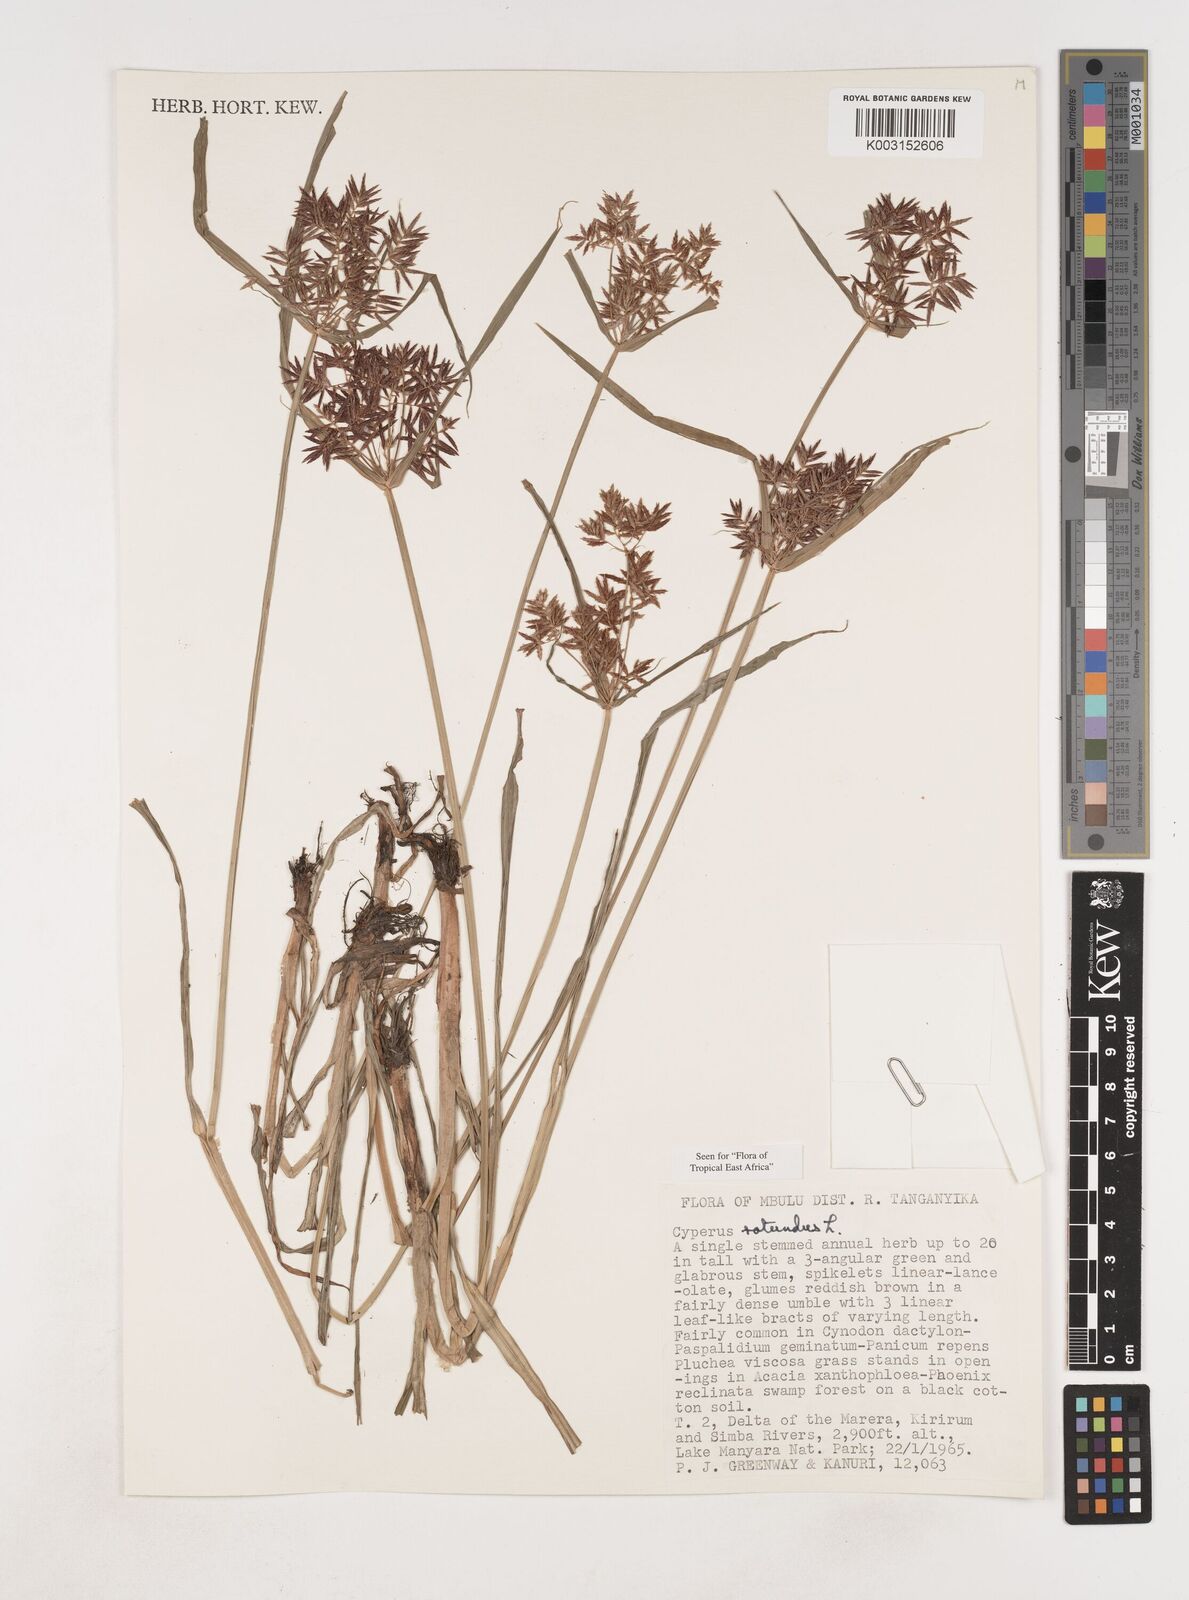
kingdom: Plantae
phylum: Tracheophyta
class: Liliopsida
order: Poales
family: Cyperaceae
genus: Cyperus
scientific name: Cyperus rotundus
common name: Nutgrass
